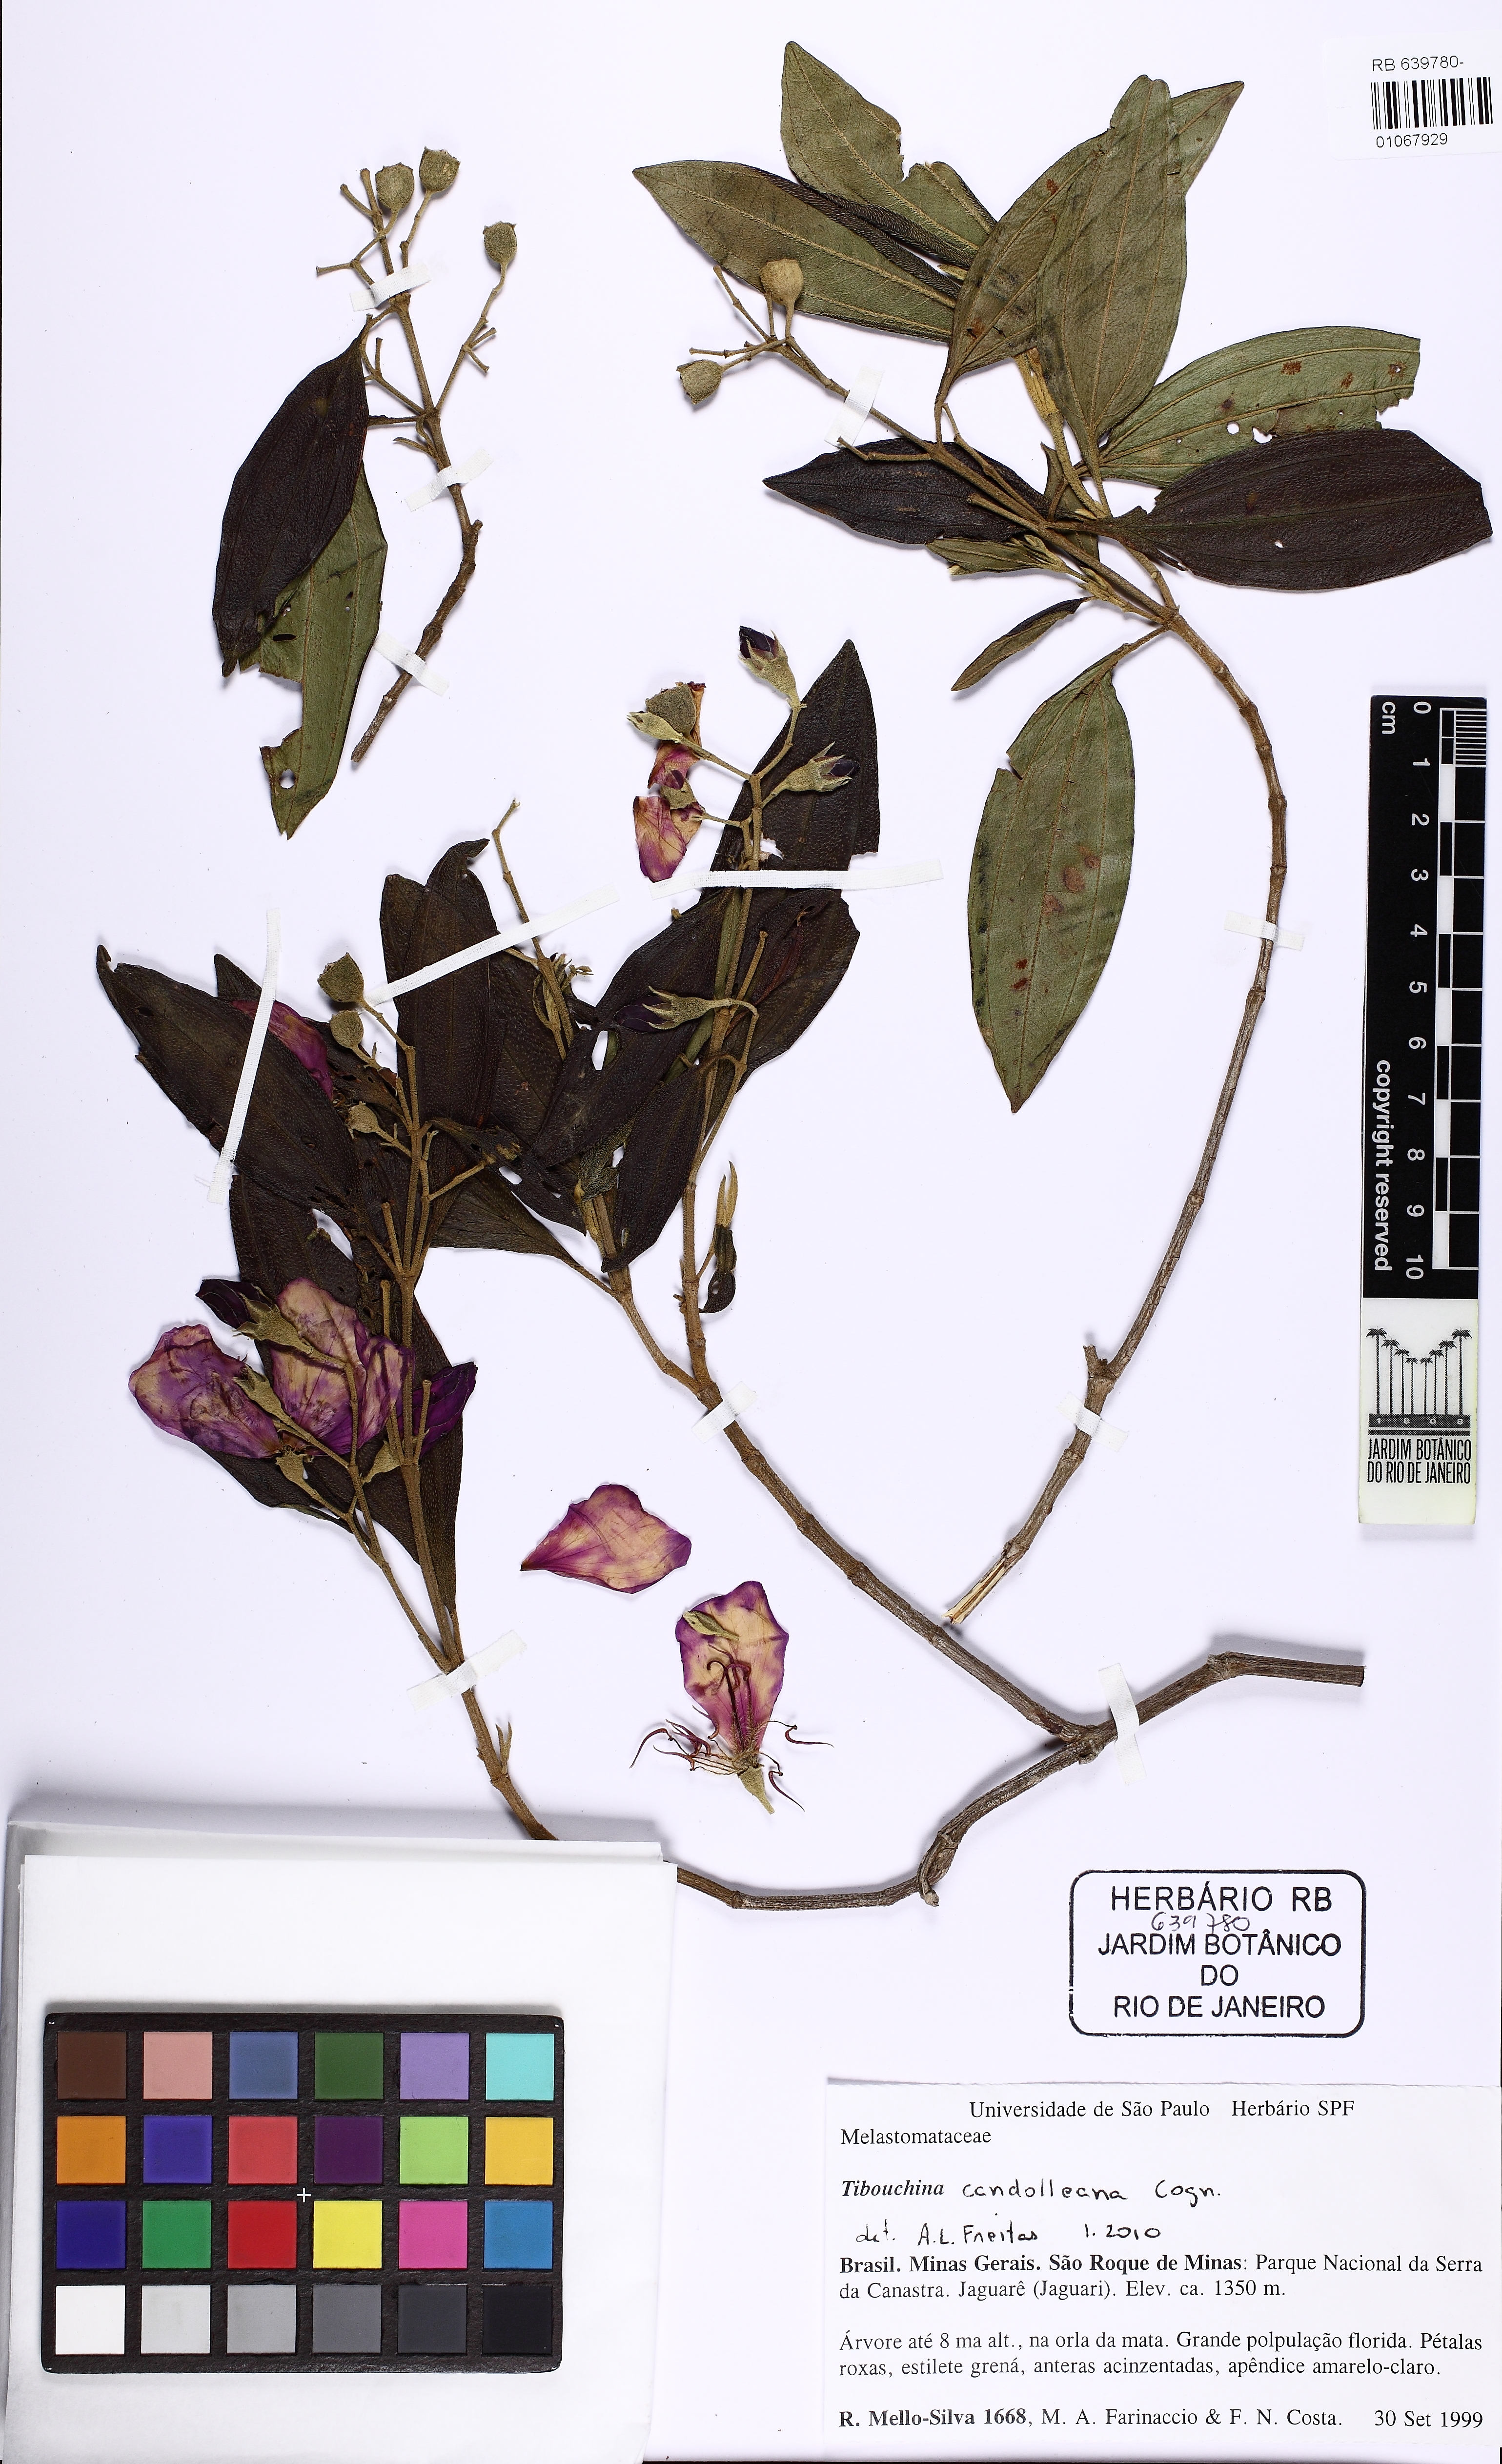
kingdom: Plantae
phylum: Tracheophyta
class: Magnoliopsida
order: Myrtales
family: Melastomataceae
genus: Pleroma
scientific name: Pleroma candolleanum
